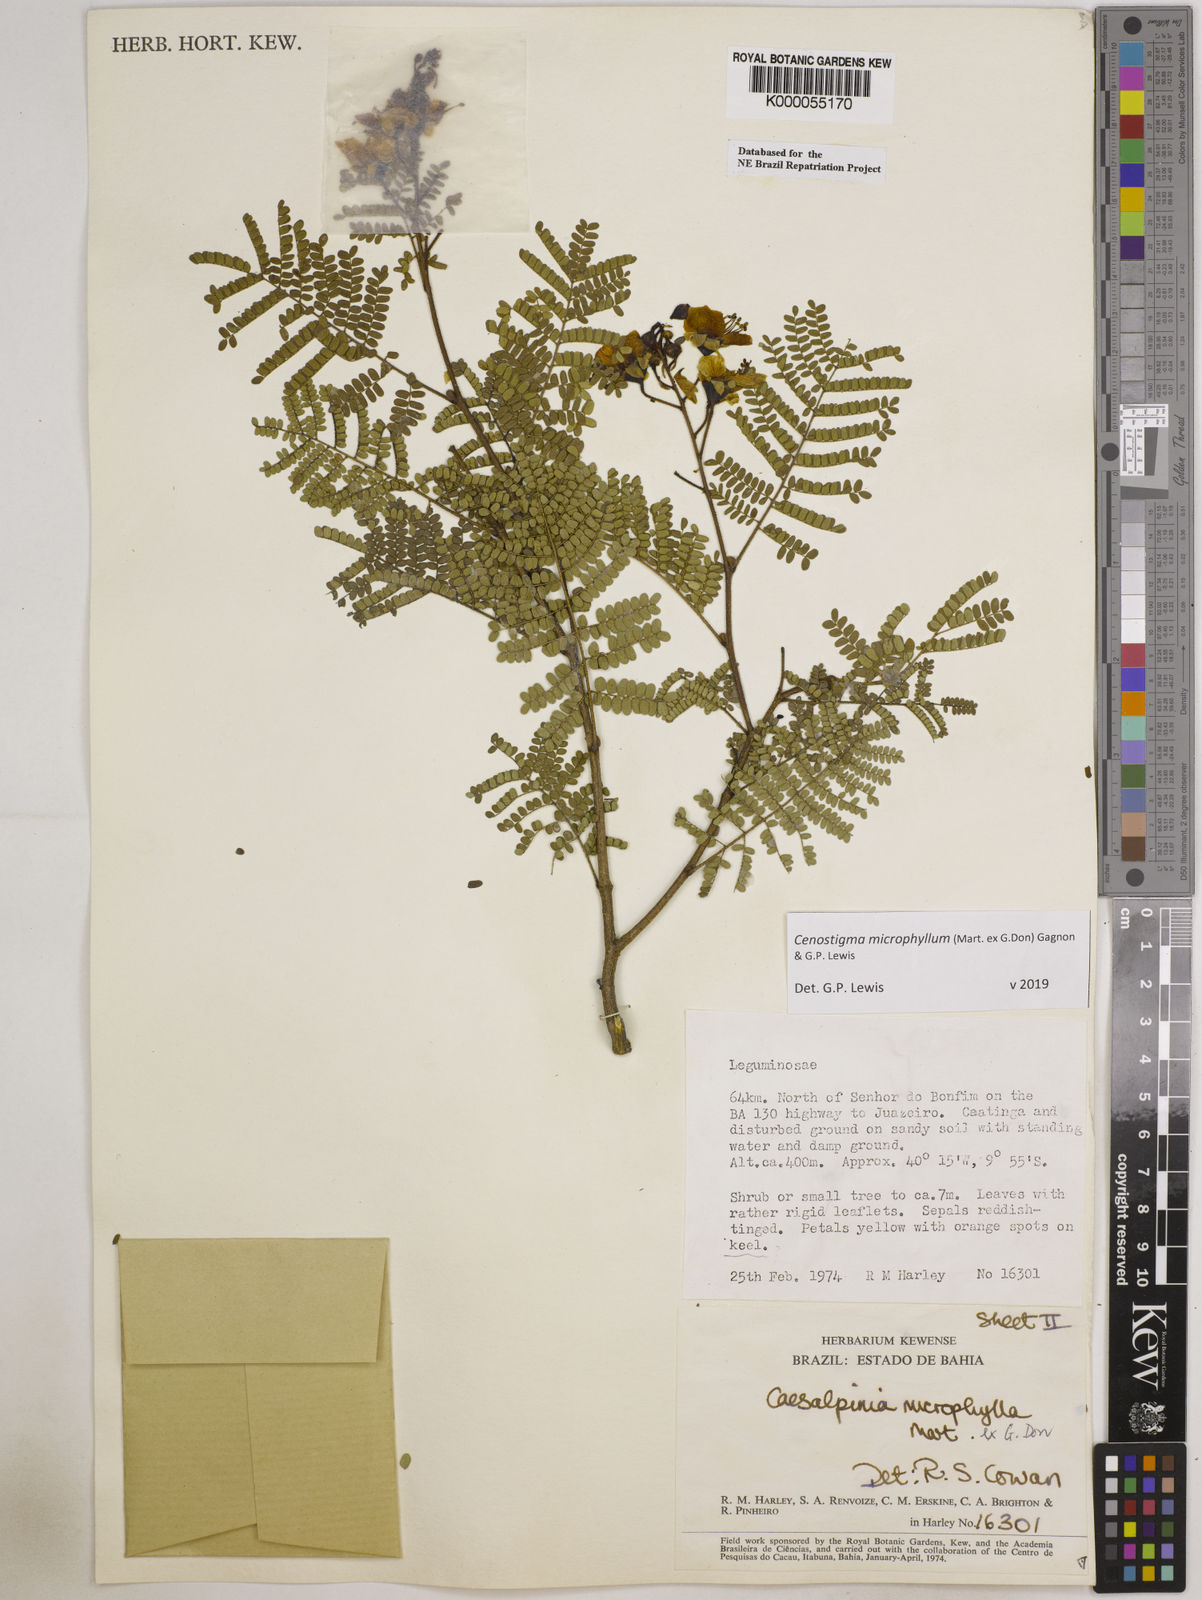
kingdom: Plantae
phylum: Tracheophyta
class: Magnoliopsida
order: Fabales
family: Fabaceae
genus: Cenostigma
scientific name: Cenostigma microphyllum
